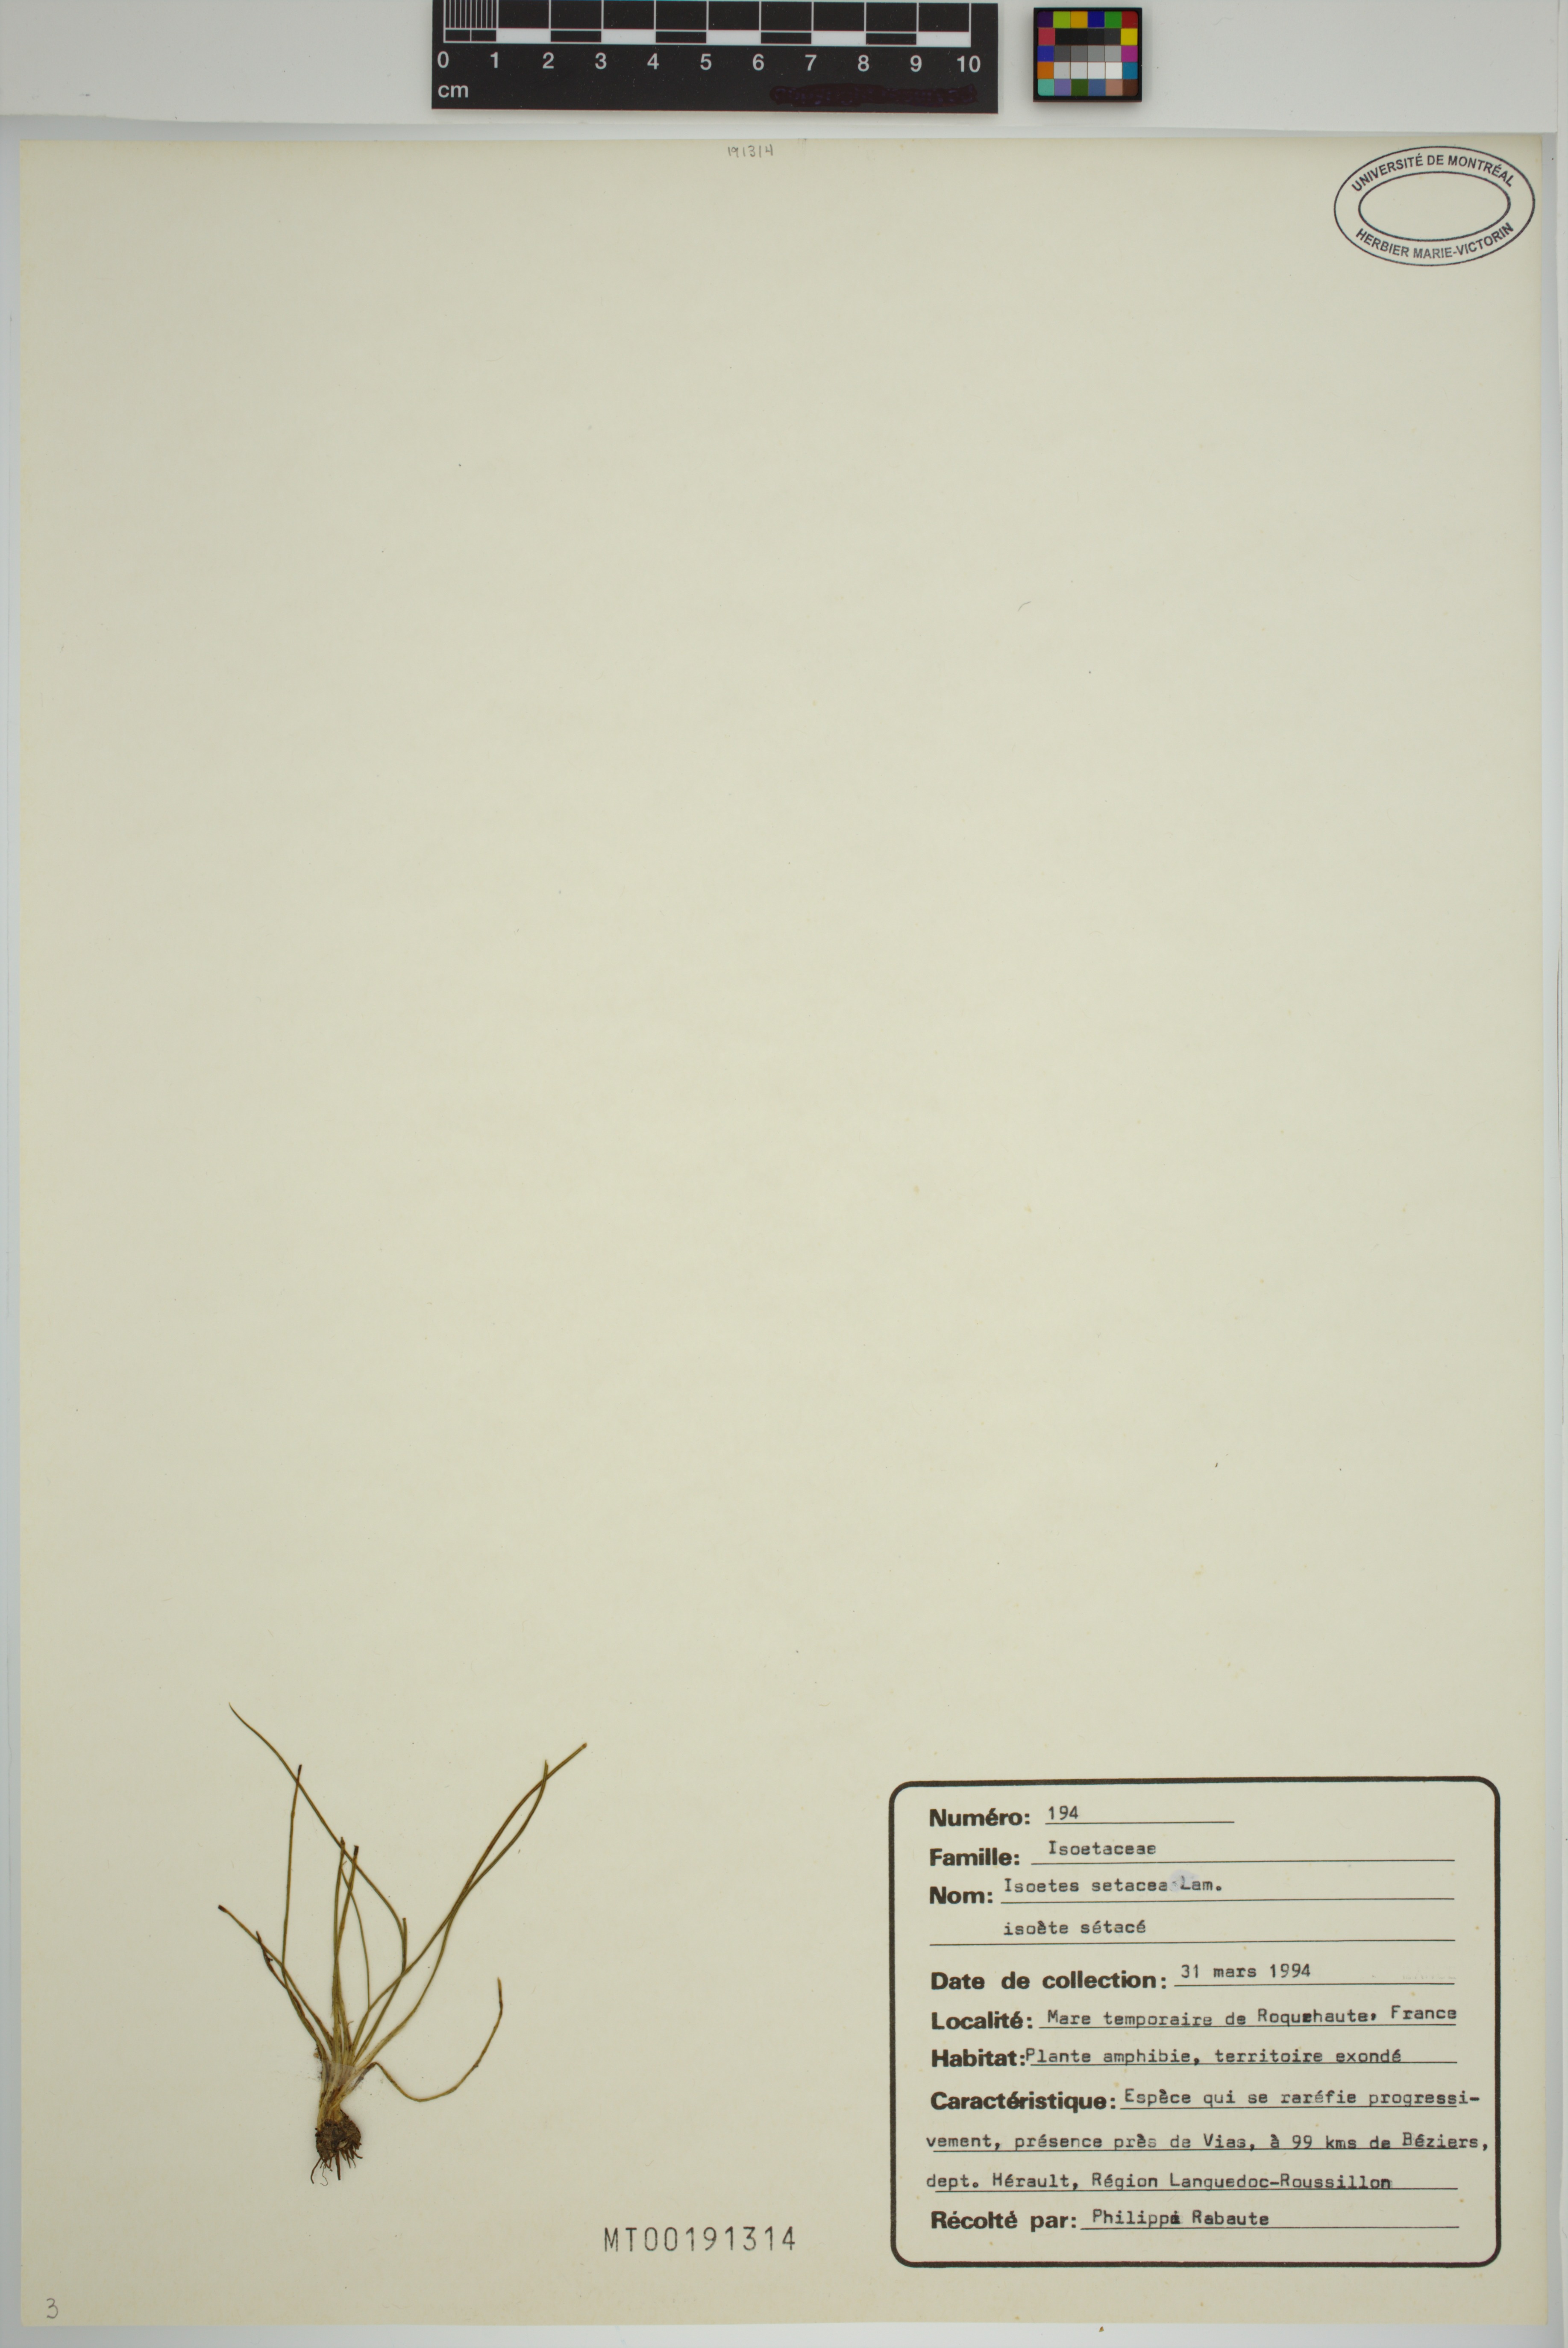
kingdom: Plantae
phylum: Tracheophyta
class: Lycopodiopsida
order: Isoetales
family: Isoetaceae
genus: Isoetes
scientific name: Isoetes lacustris
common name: Common quillwort
